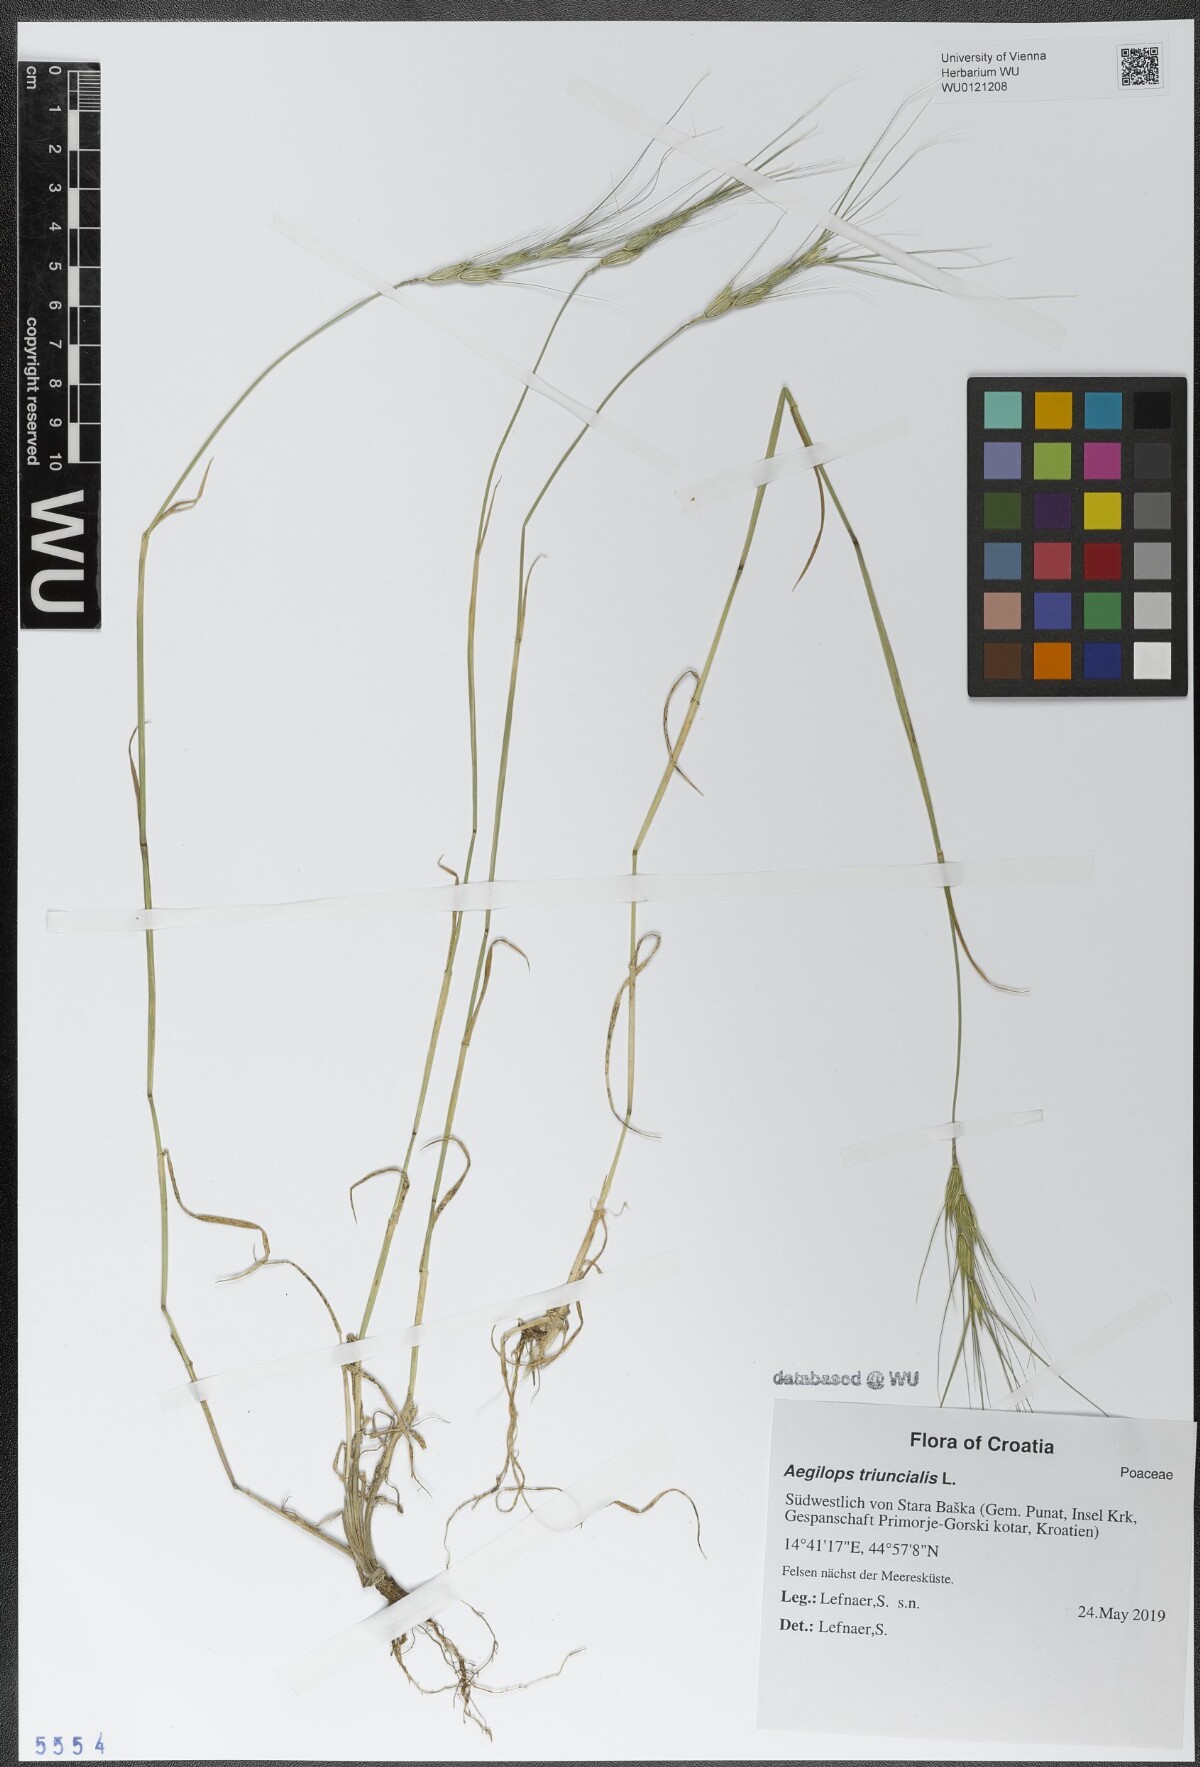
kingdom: Plantae
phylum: Tracheophyta
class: Liliopsida
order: Poales
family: Poaceae
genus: Aegilops
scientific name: Aegilops triuncialis
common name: Barb goat grass
